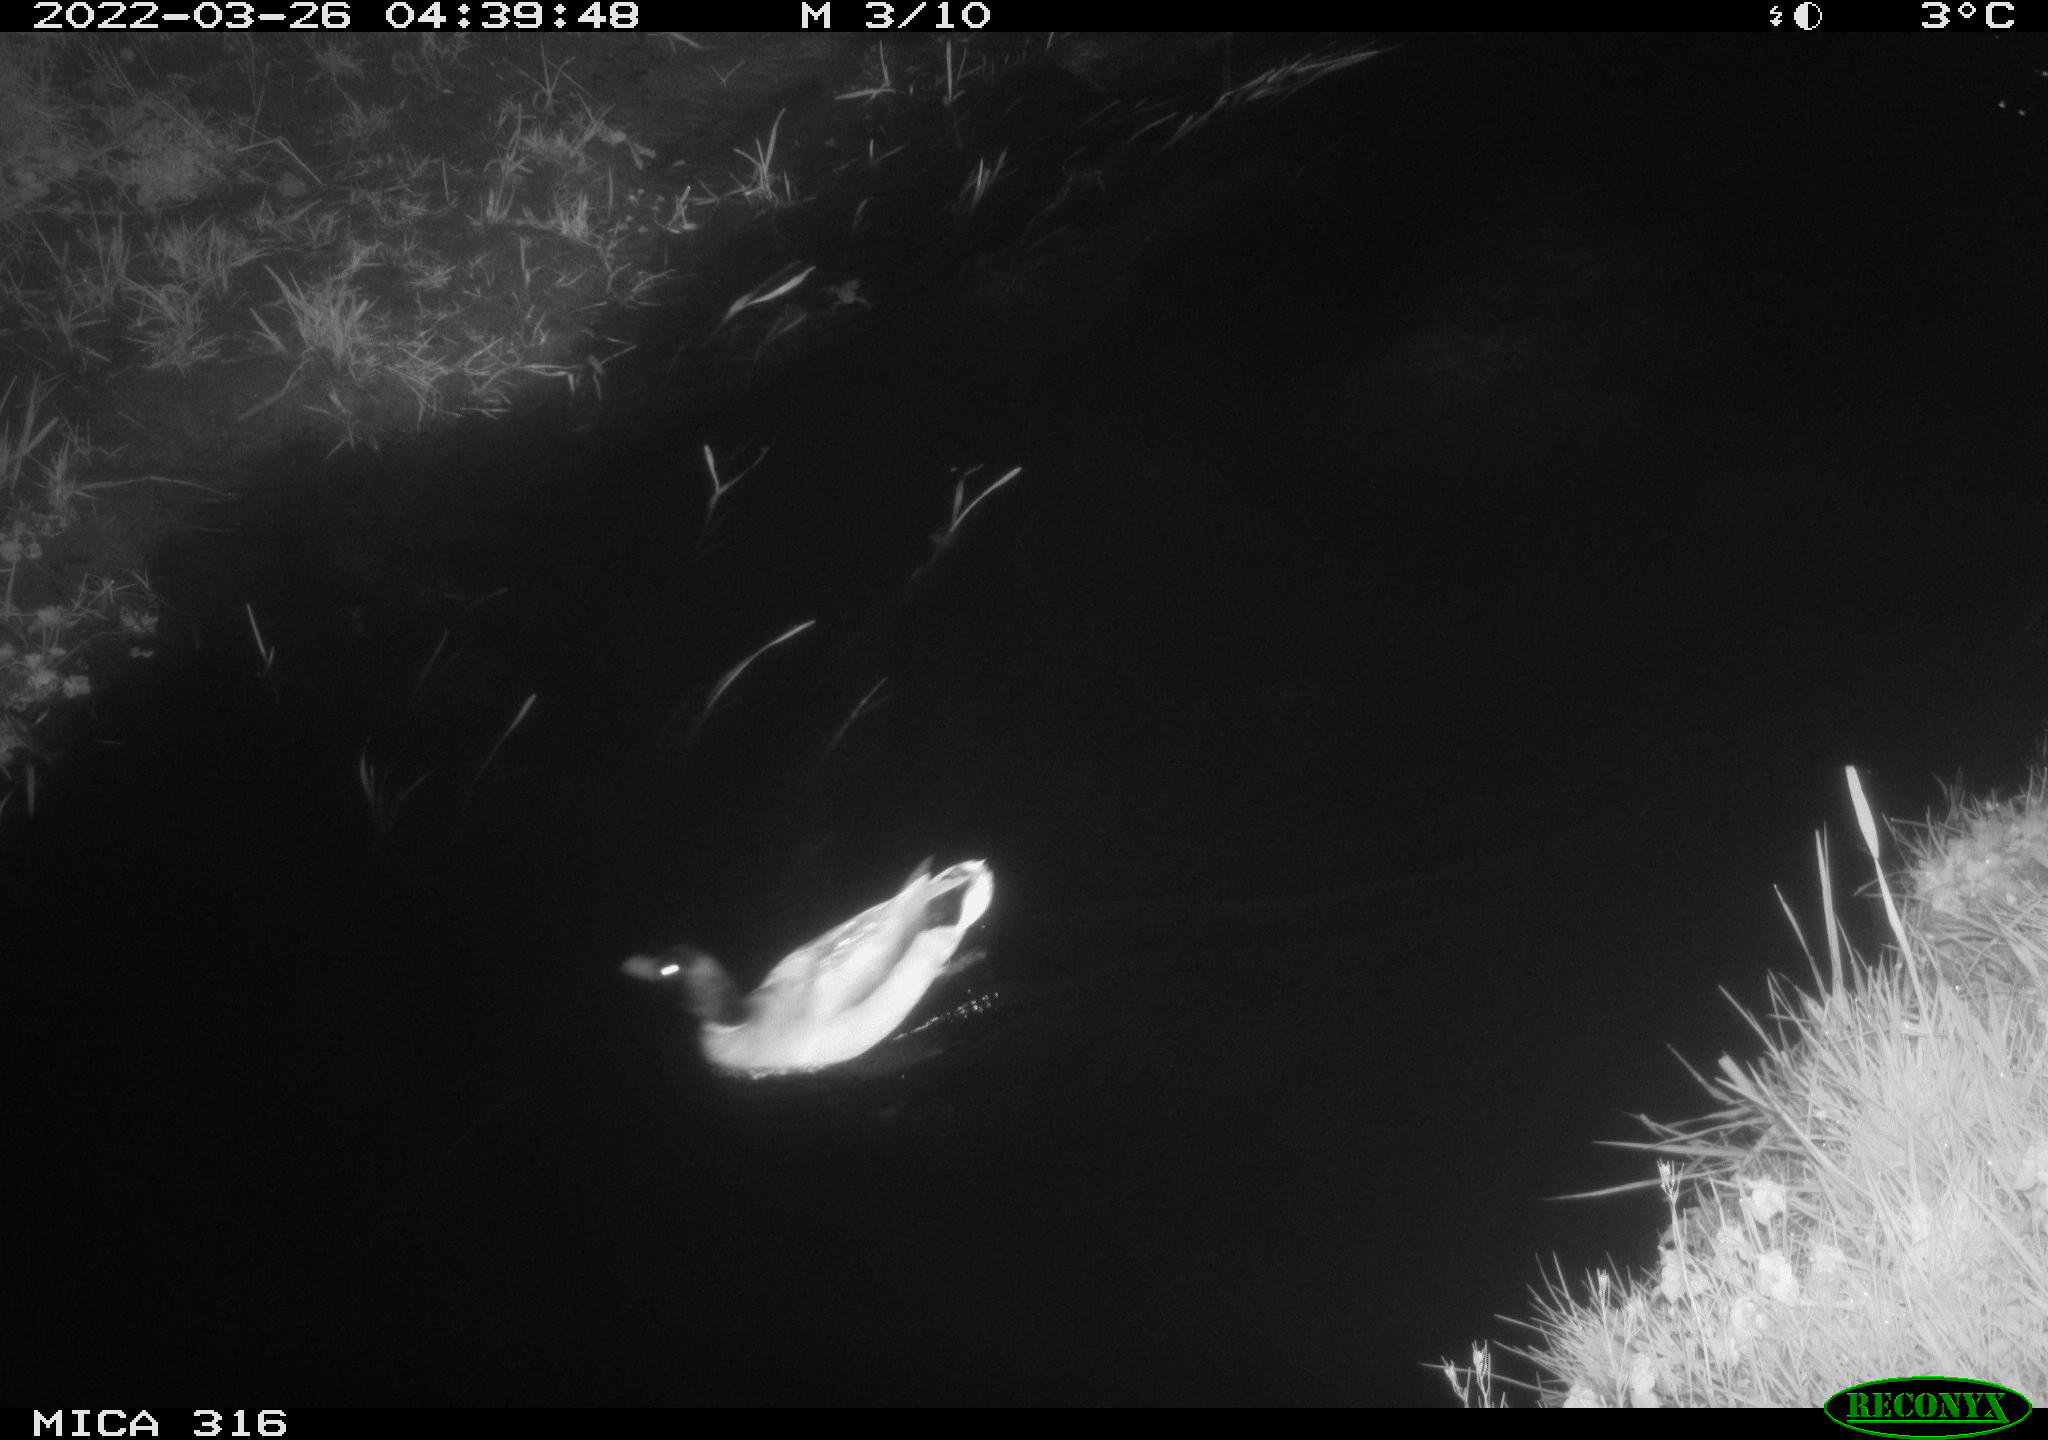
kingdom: Animalia
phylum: Chordata
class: Aves
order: Anseriformes
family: Anatidae
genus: Anas
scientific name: Anas platyrhynchos
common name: Mallard
